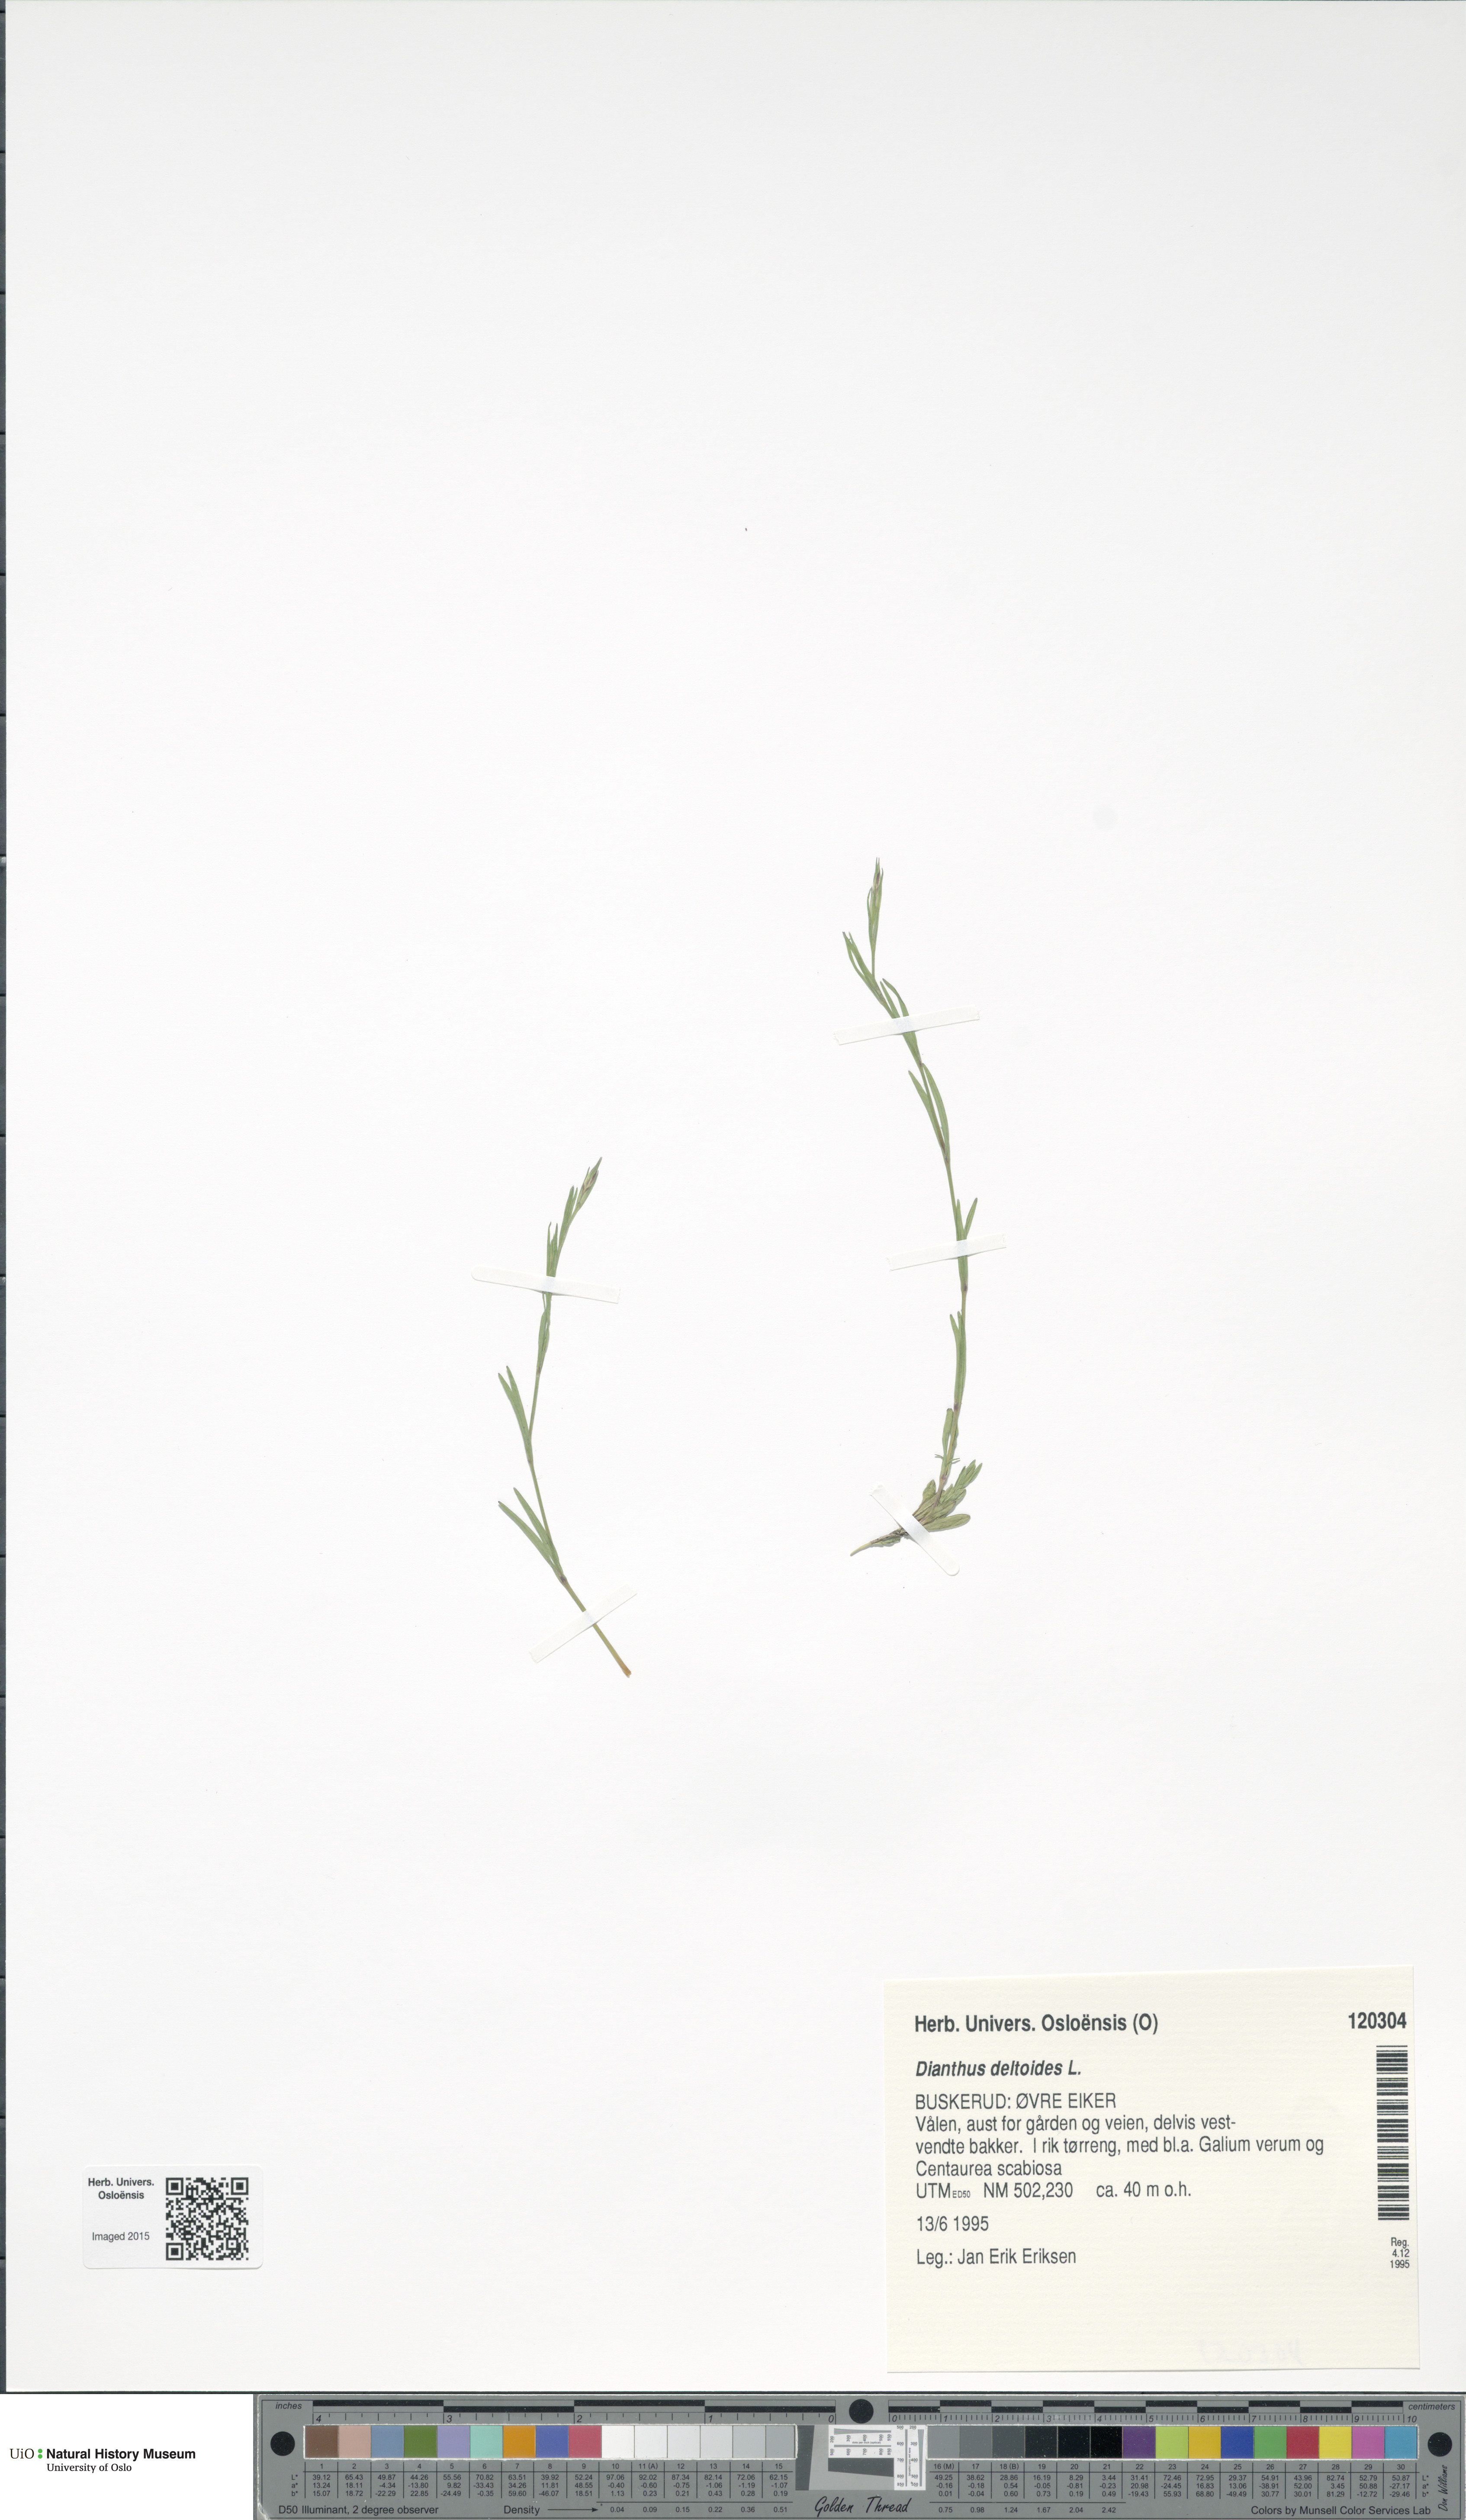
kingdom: Plantae
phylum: Tracheophyta
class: Magnoliopsida
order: Caryophyllales
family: Caryophyllaceae
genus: Dianthus
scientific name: Dianthus deltoides
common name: Maiden pink
